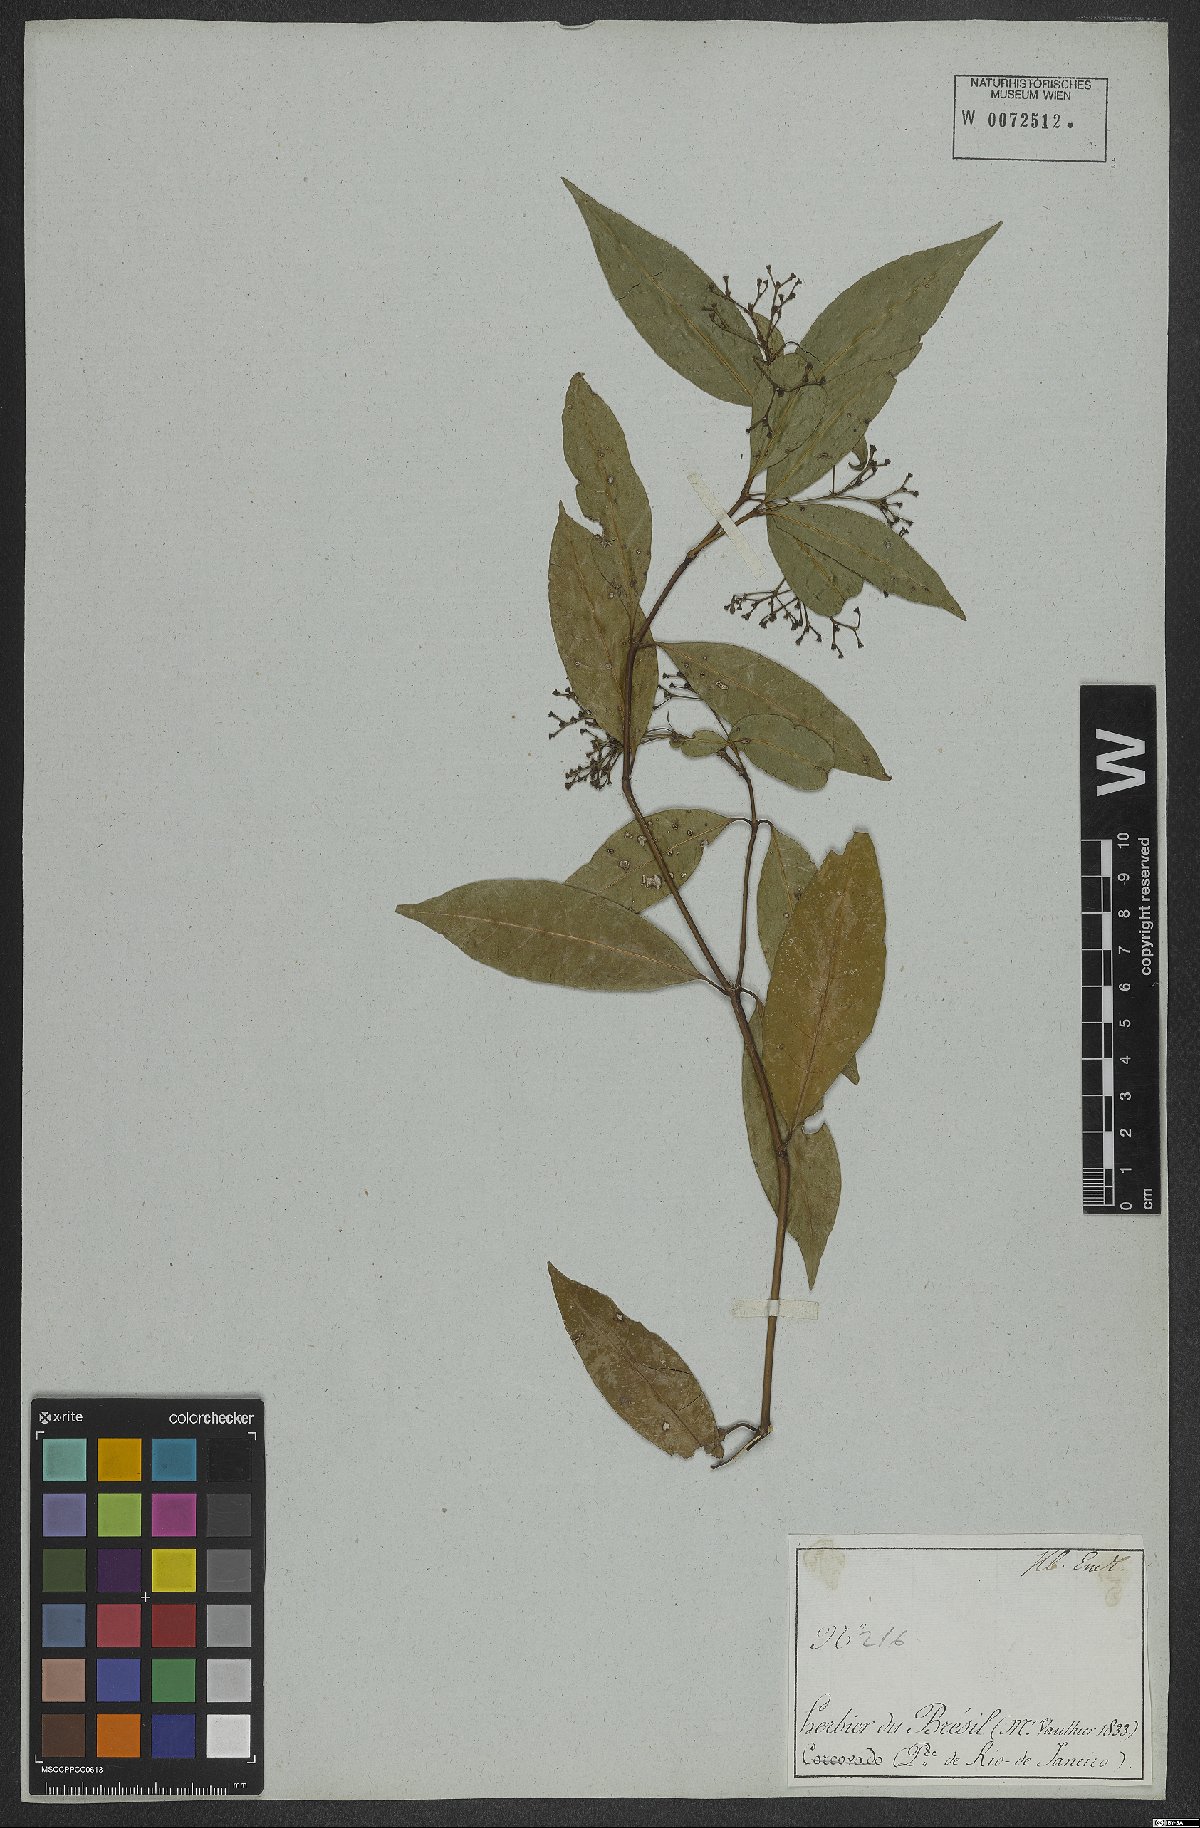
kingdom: Plantae
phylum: Tracheophyta
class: Magnoliopsida
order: Gentianales
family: Rubiaceae
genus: Psychotria
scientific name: Psychotria leiocarpa
